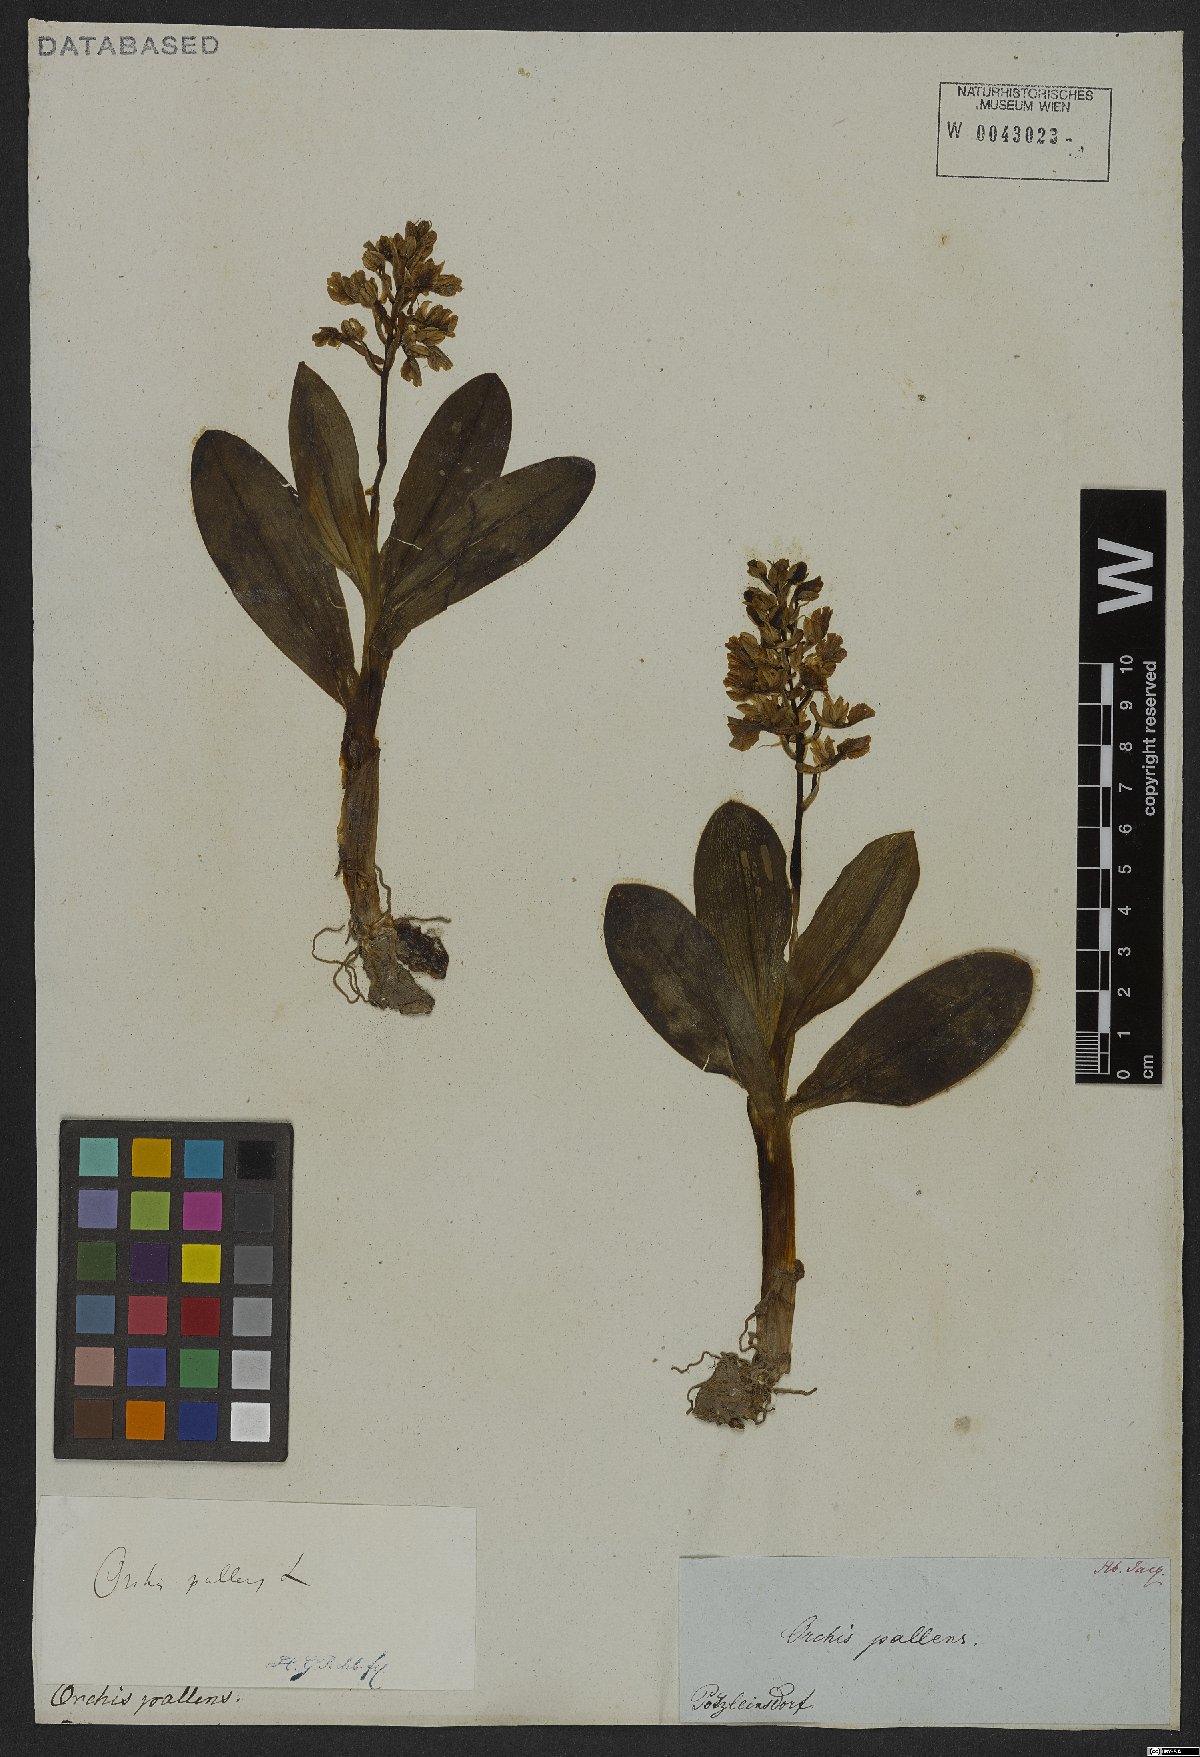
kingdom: Plantae
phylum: Tracheophyta
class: Liliopsida
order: Asparagales
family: Orchidaceae
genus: Orchis
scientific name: Orchis pallens
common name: Pale-flowered orchid
